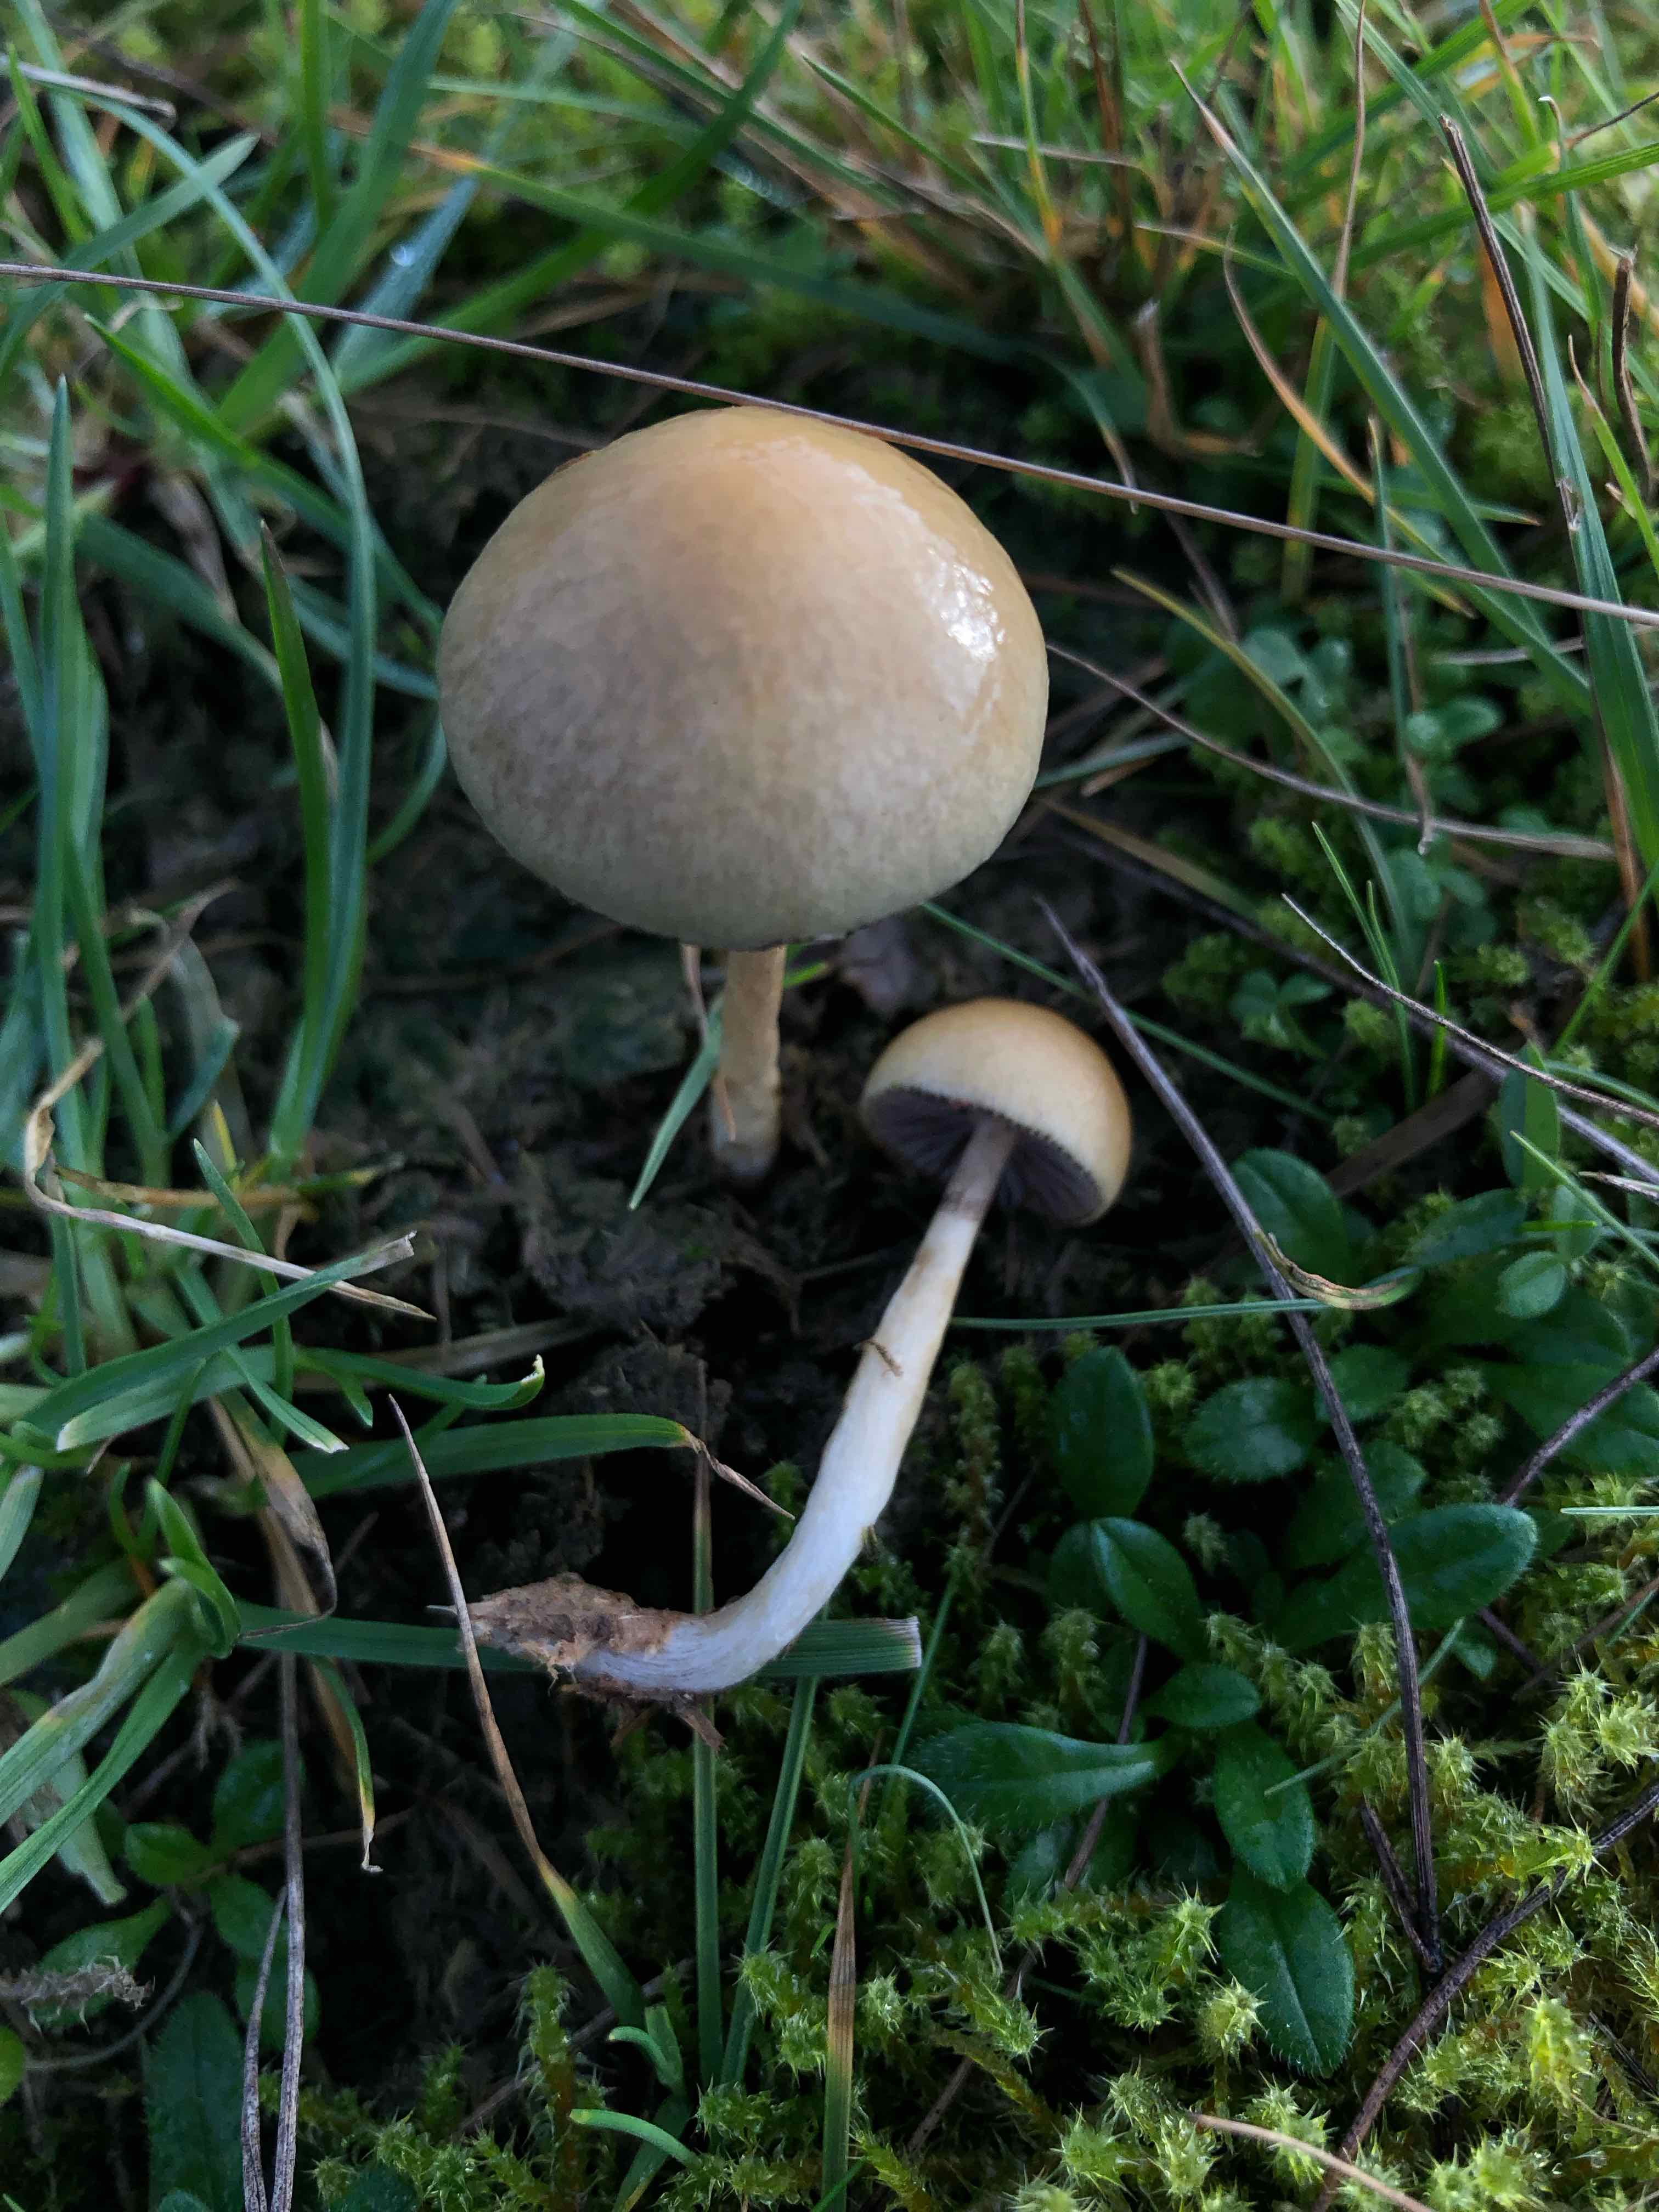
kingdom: Fungi
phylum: Basidiomycota
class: Agaricomycetes
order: Agaricales
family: Strophariaceae
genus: Protostropharia
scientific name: Protostropharia semiglobata
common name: halvkugleformet bredblad
